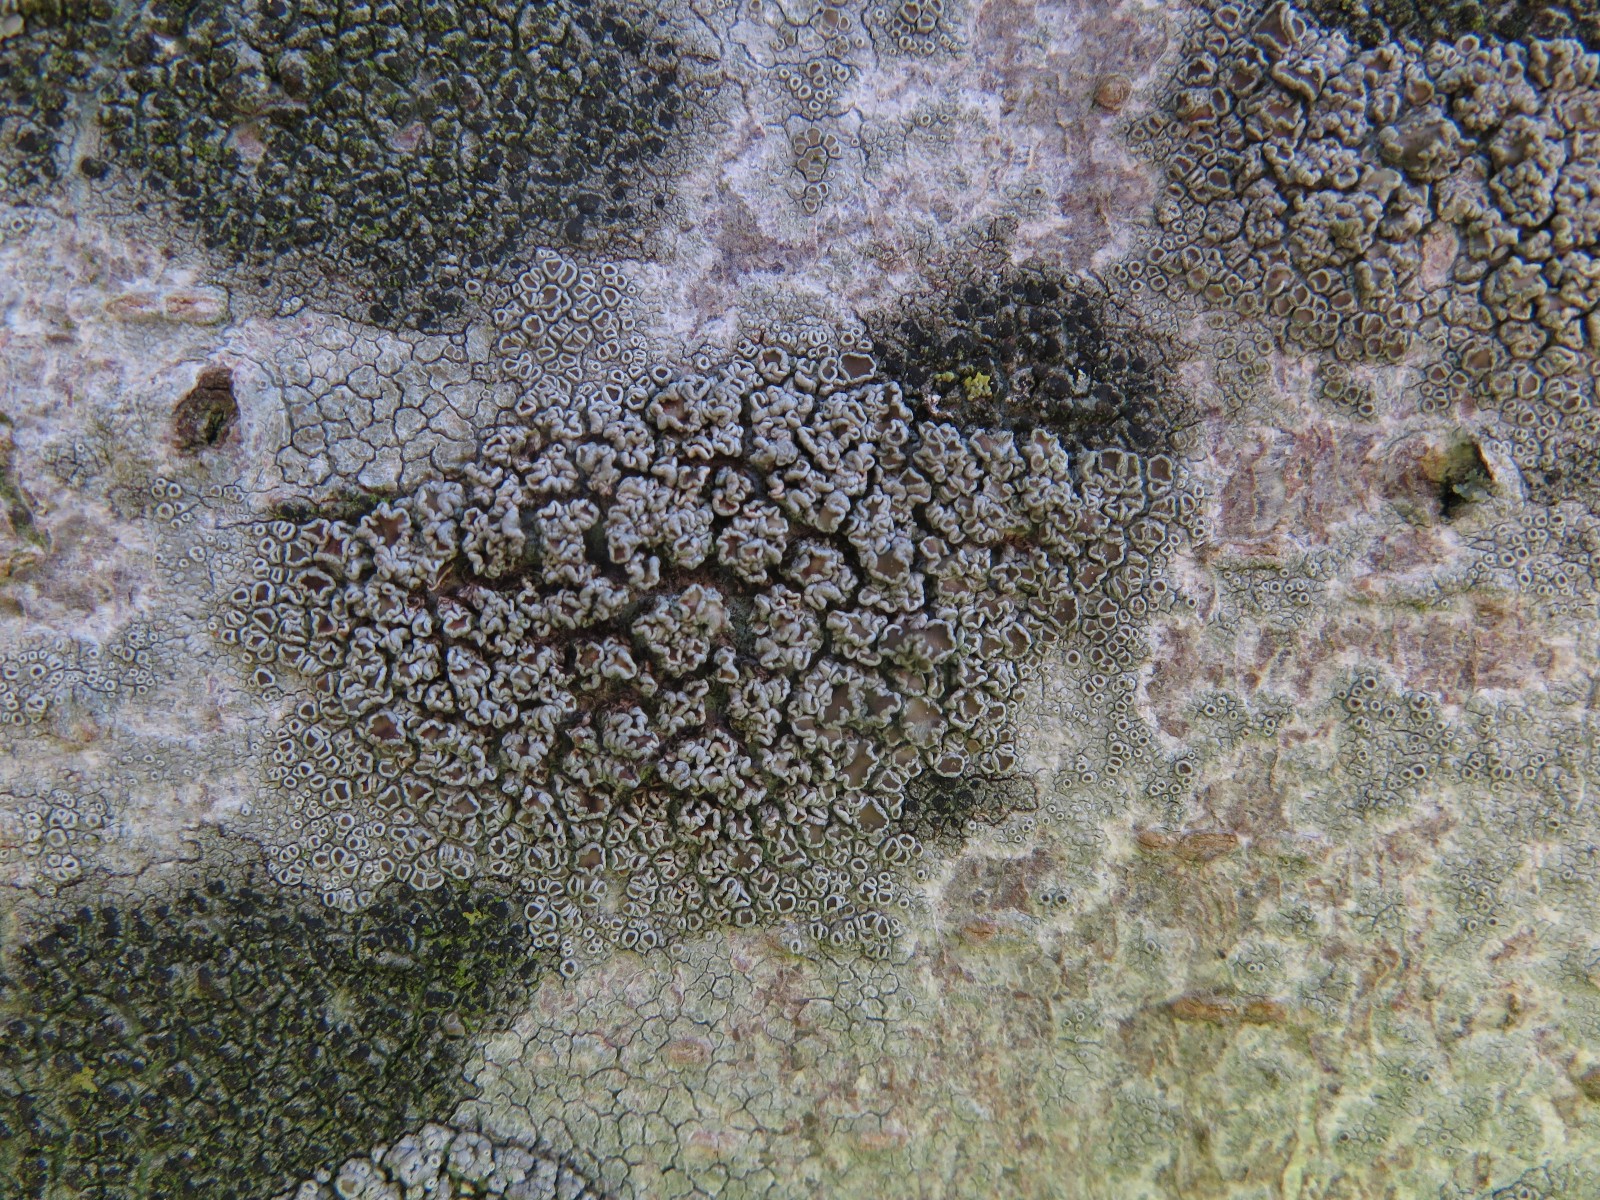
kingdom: Fungi
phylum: Ascomycota
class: Lecanoromycetes
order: Lecanorales
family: Lecanoraceae
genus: Lecanora
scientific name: Lecanora argentata
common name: sølv-kantskivelav
